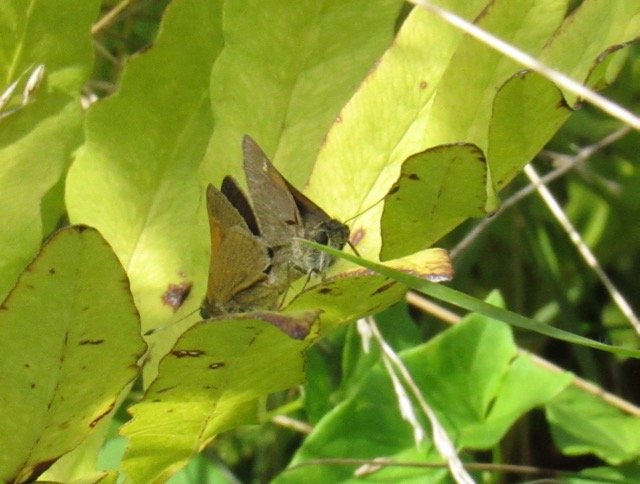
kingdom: Animalia
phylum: Arthropoda
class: Insecta
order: Lepidoptera
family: Hesperiidae
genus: Polites
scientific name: Polites themistocles
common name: Tawny-edged Skipper
